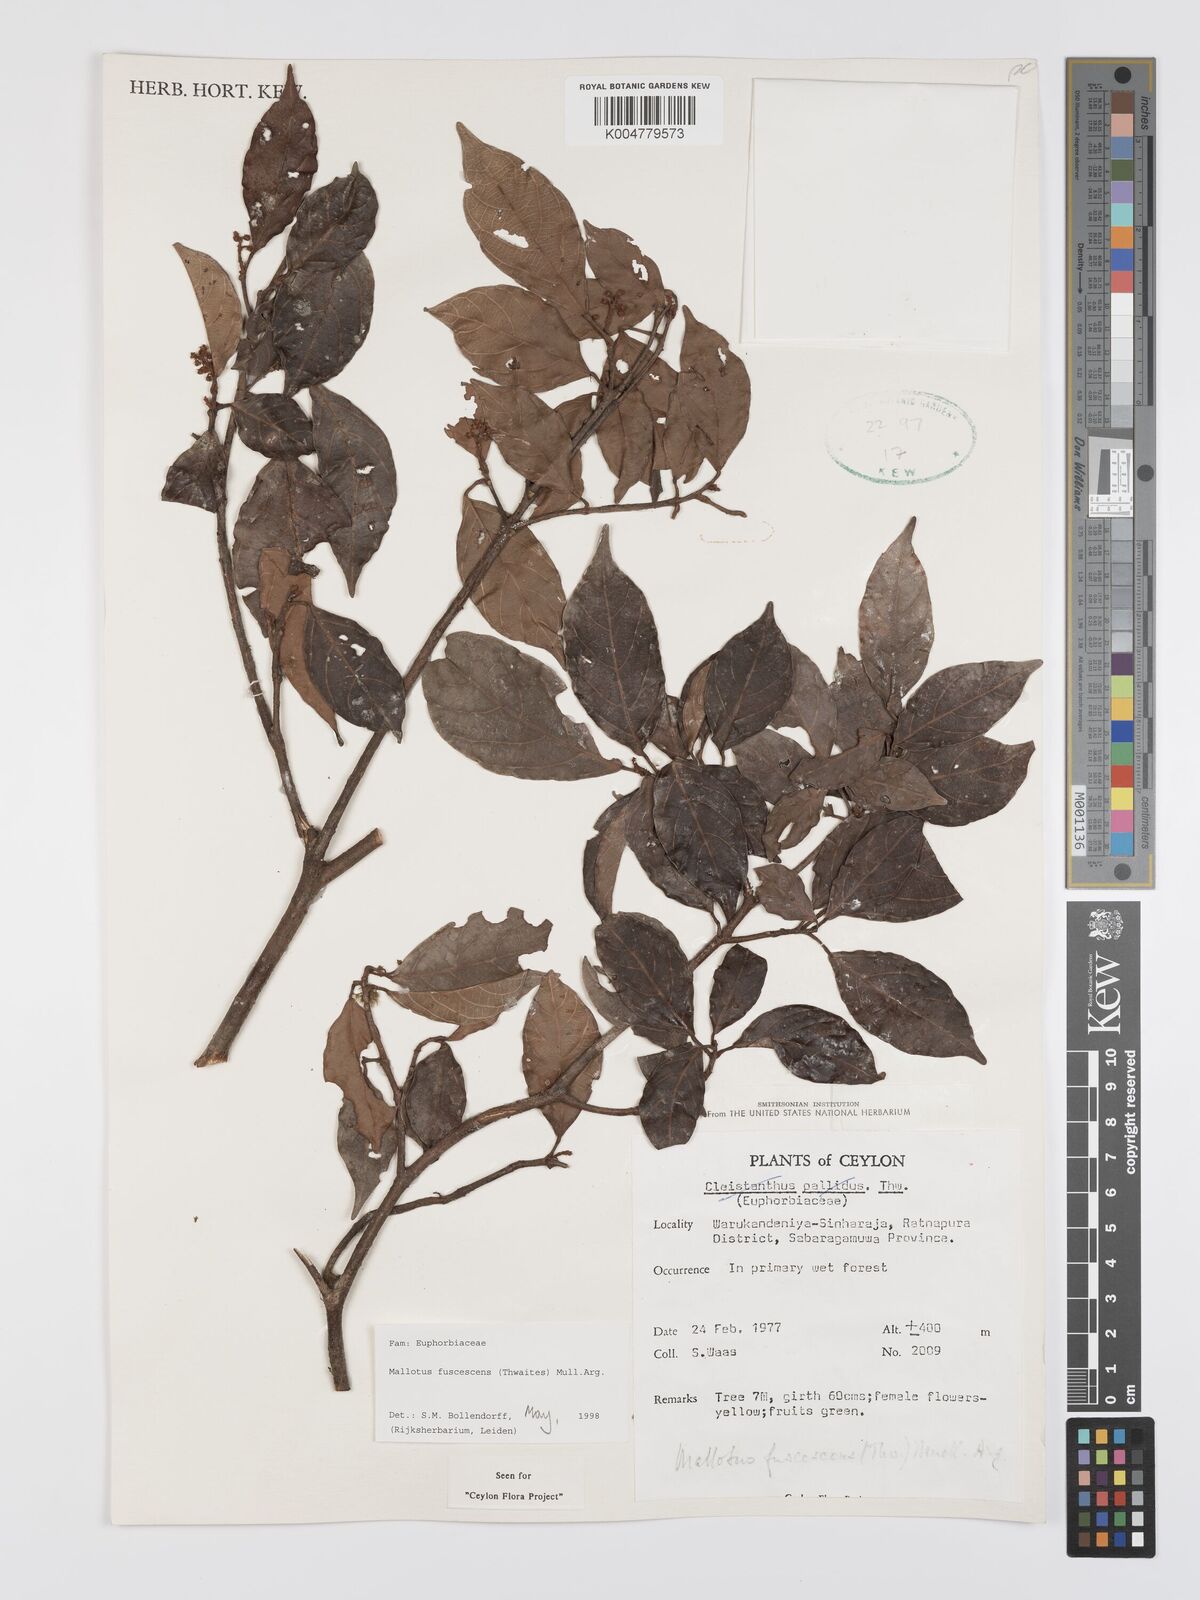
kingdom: Plantae
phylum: Tracheophyta
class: Magnoliopsida
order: Malpighiales
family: Euphorbiaceae
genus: Mallotus
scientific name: Mallotus fuscescens
